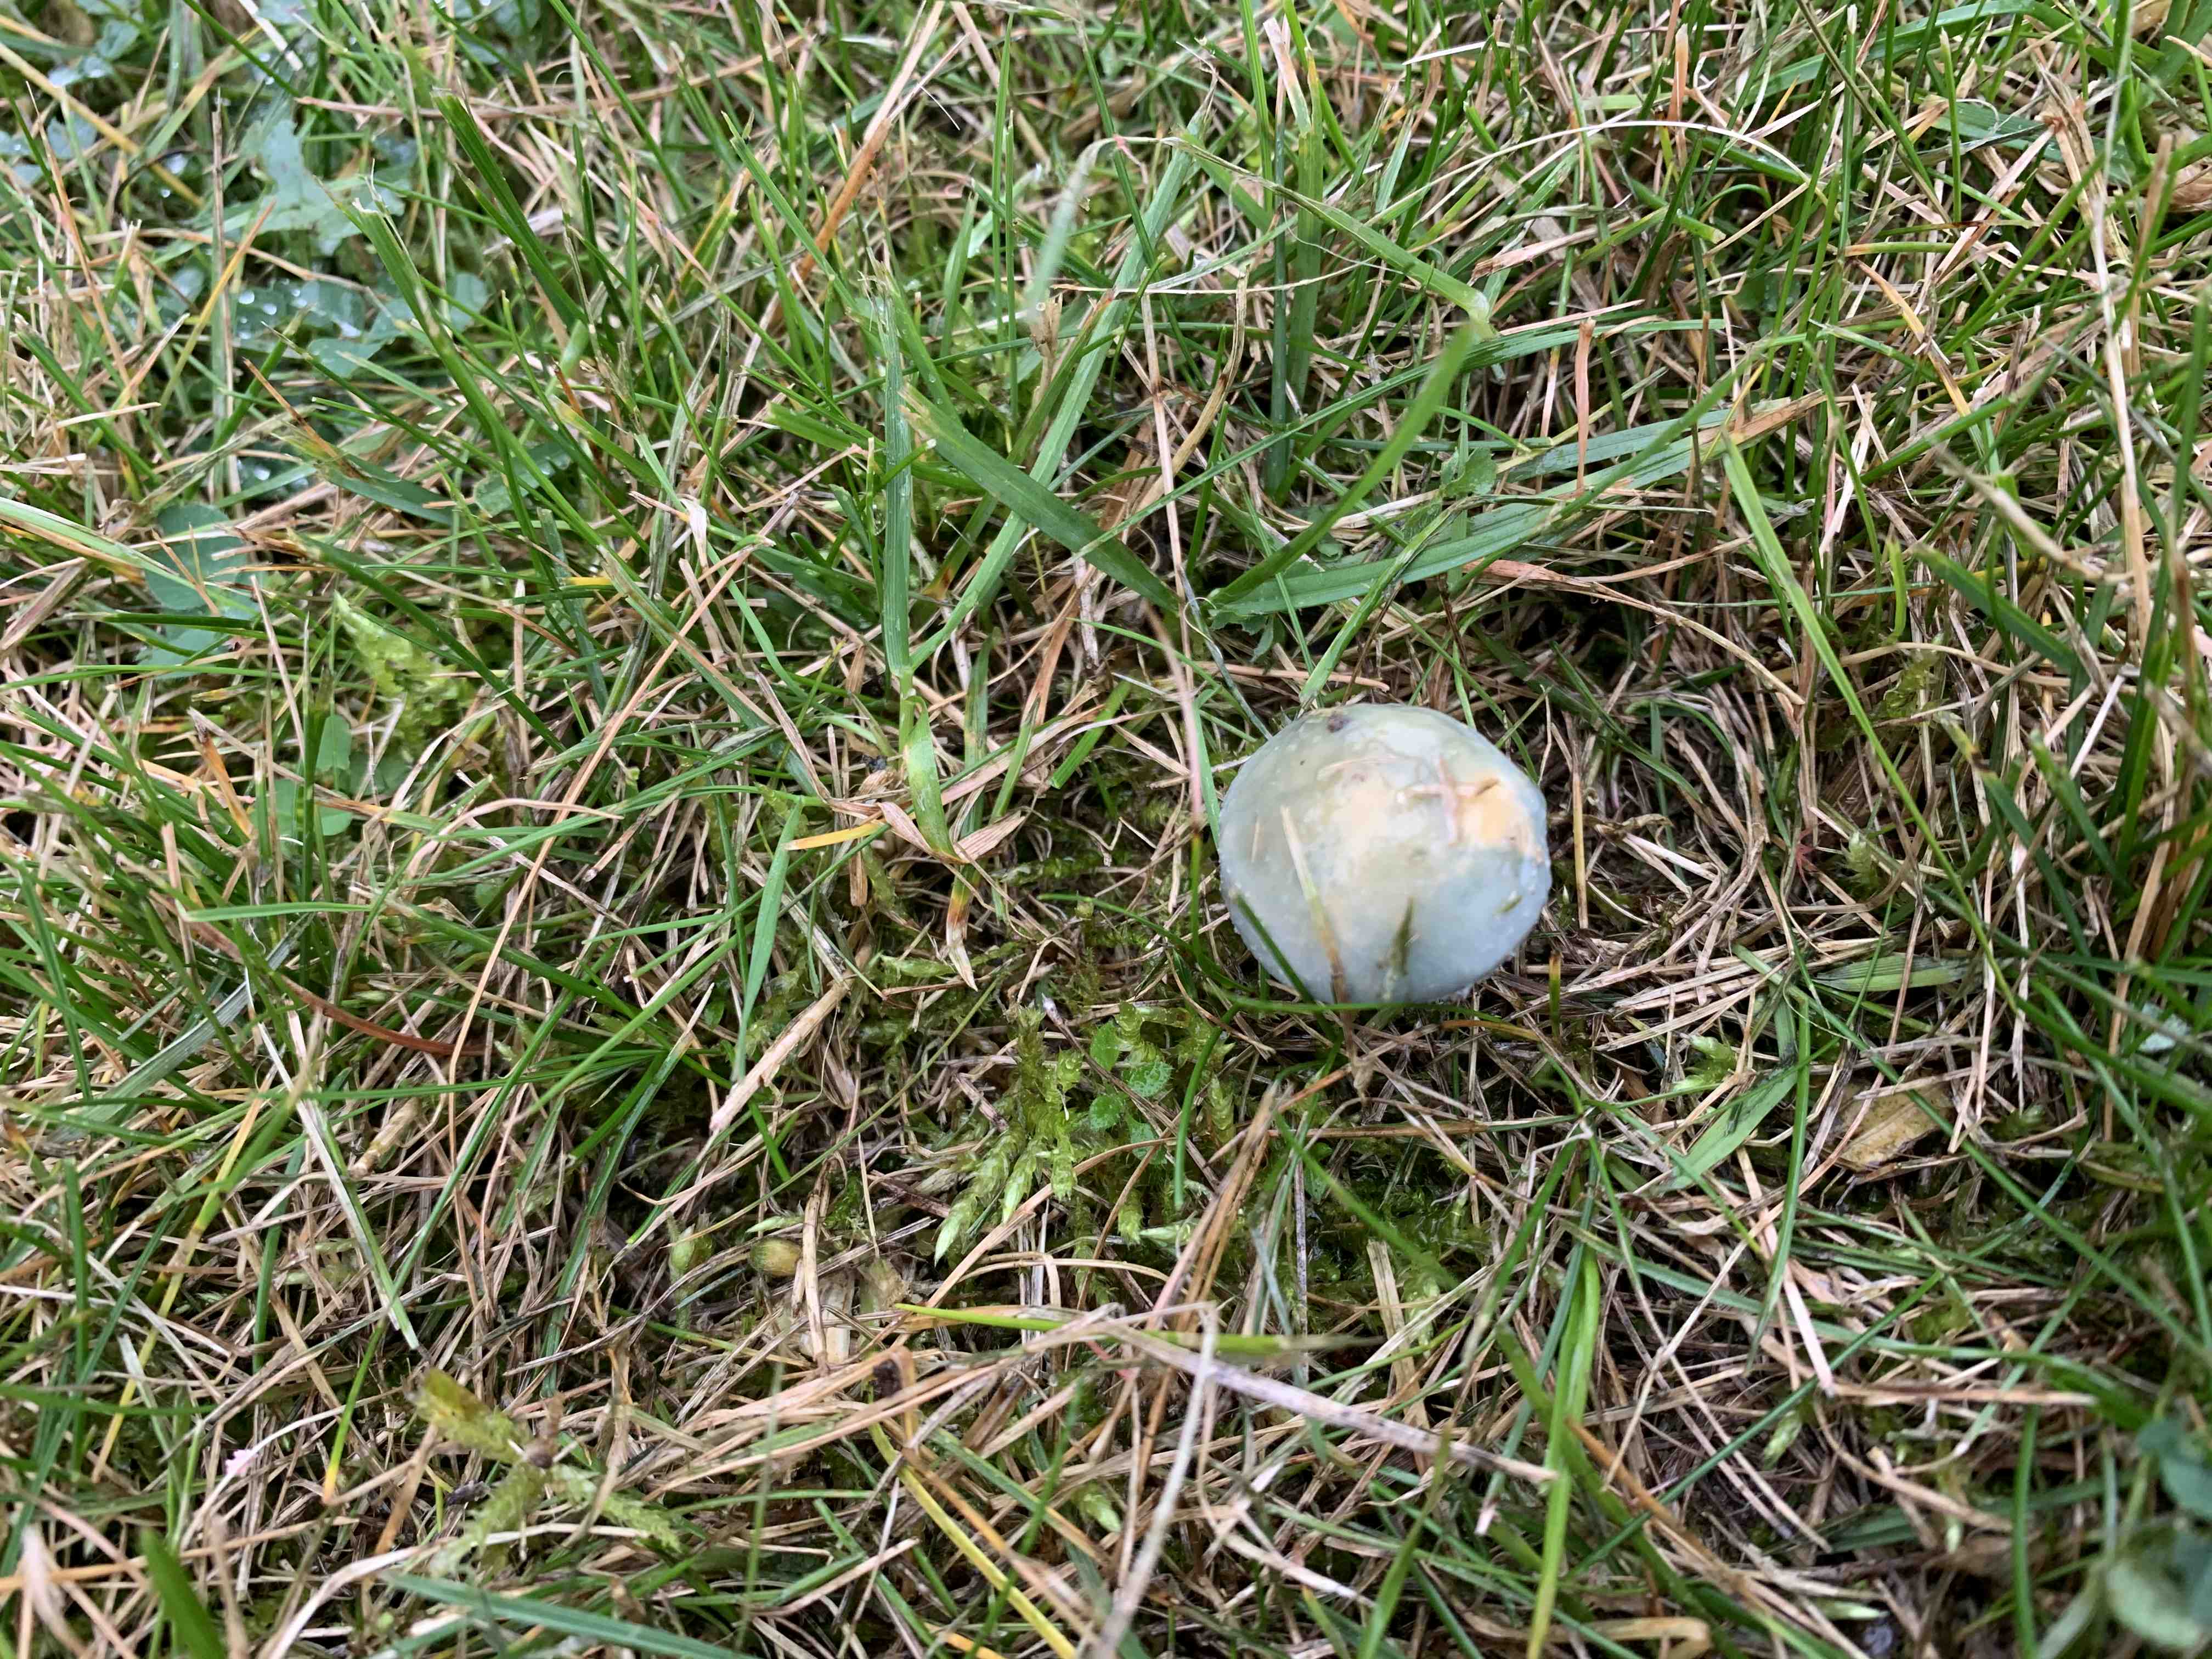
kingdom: Fungi
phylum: Basidiomycota
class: Agaricomycetes
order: Agaricales
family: Strophariaceae
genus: Stropharia
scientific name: Stropharia cyanea
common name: blågrøn bredblad
